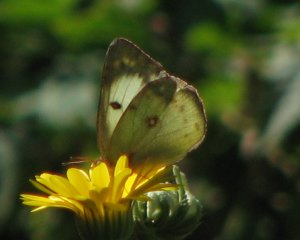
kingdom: Animalia
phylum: Arthropoda
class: Insecta
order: Lepidoptera
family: Pieridae
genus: Colias
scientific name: Colias philodice
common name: Clouded Sulphur
